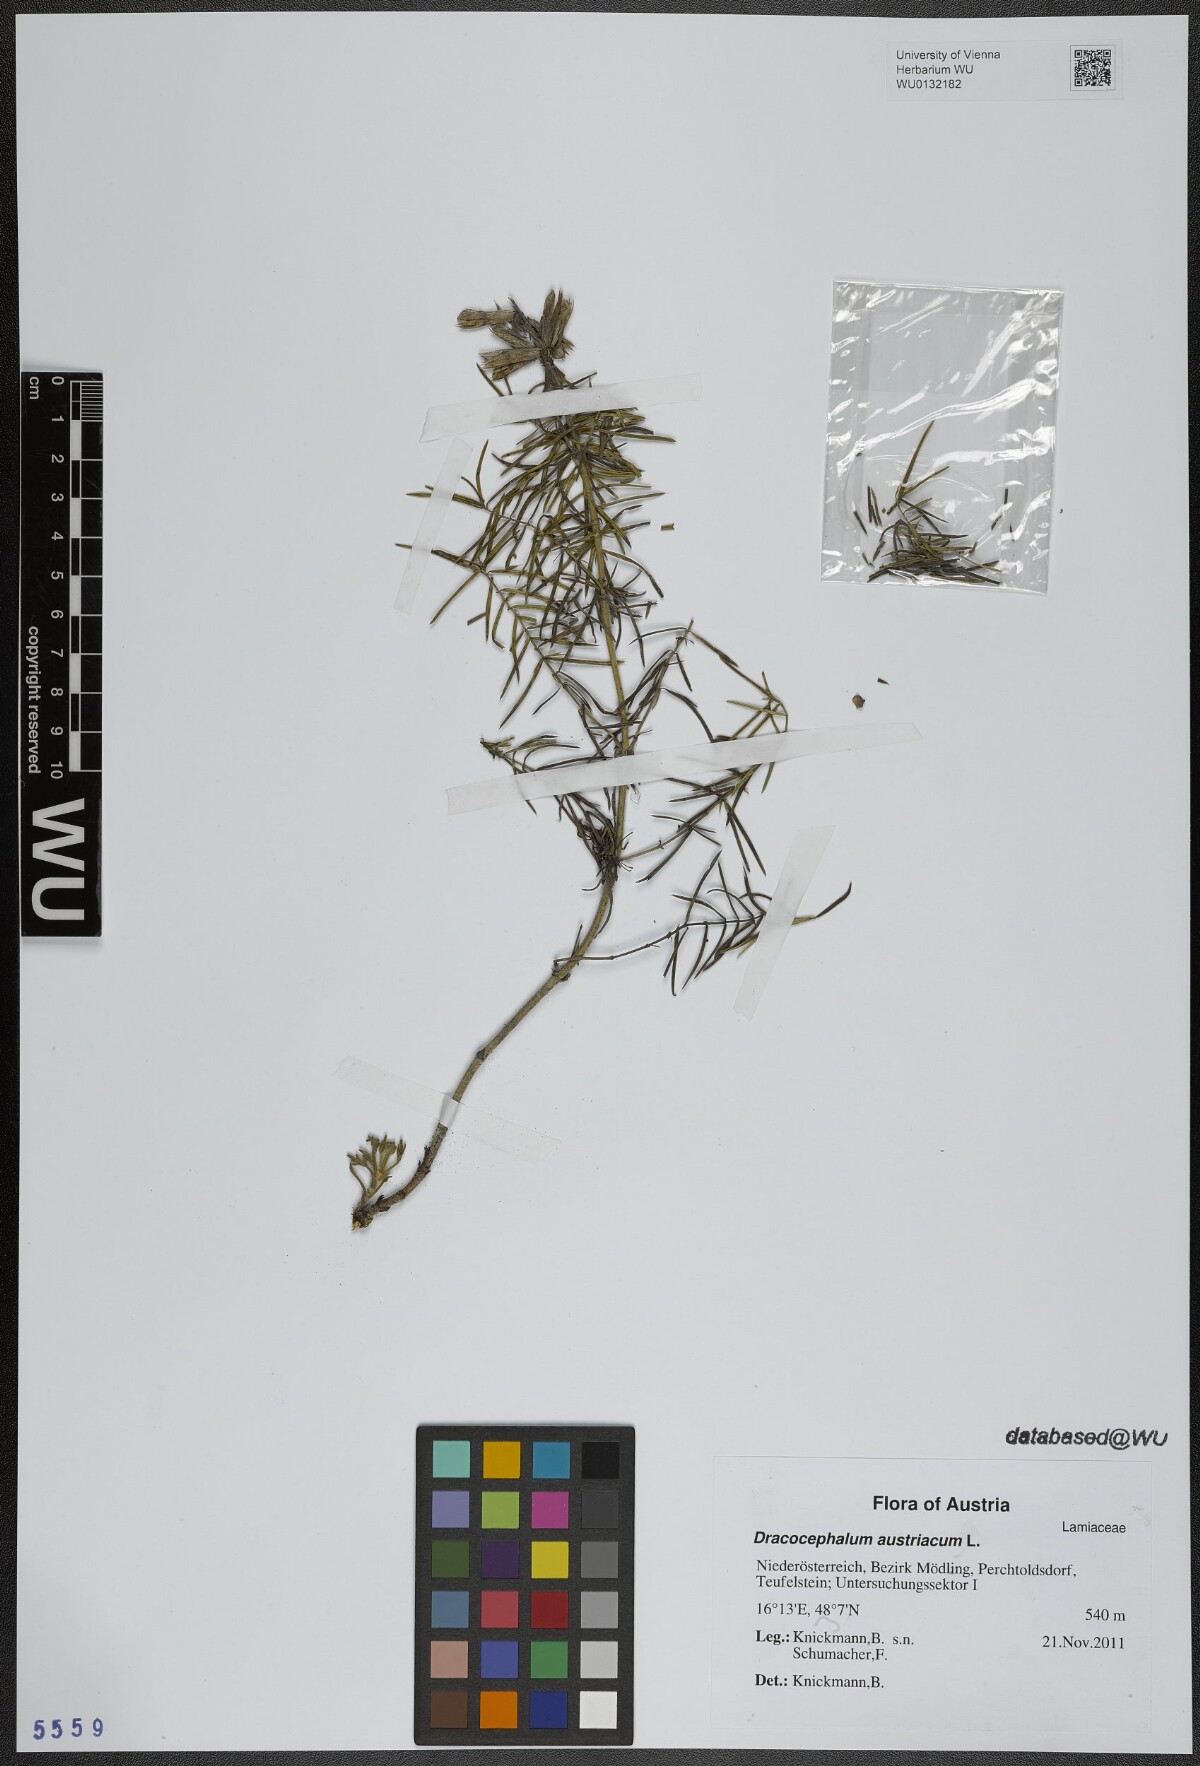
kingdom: Plantae
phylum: Tracheophyta
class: Magnoliopsida
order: Lamiales
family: Lamiaceae
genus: Dracocephalum
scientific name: Dracocephalum austriacum
